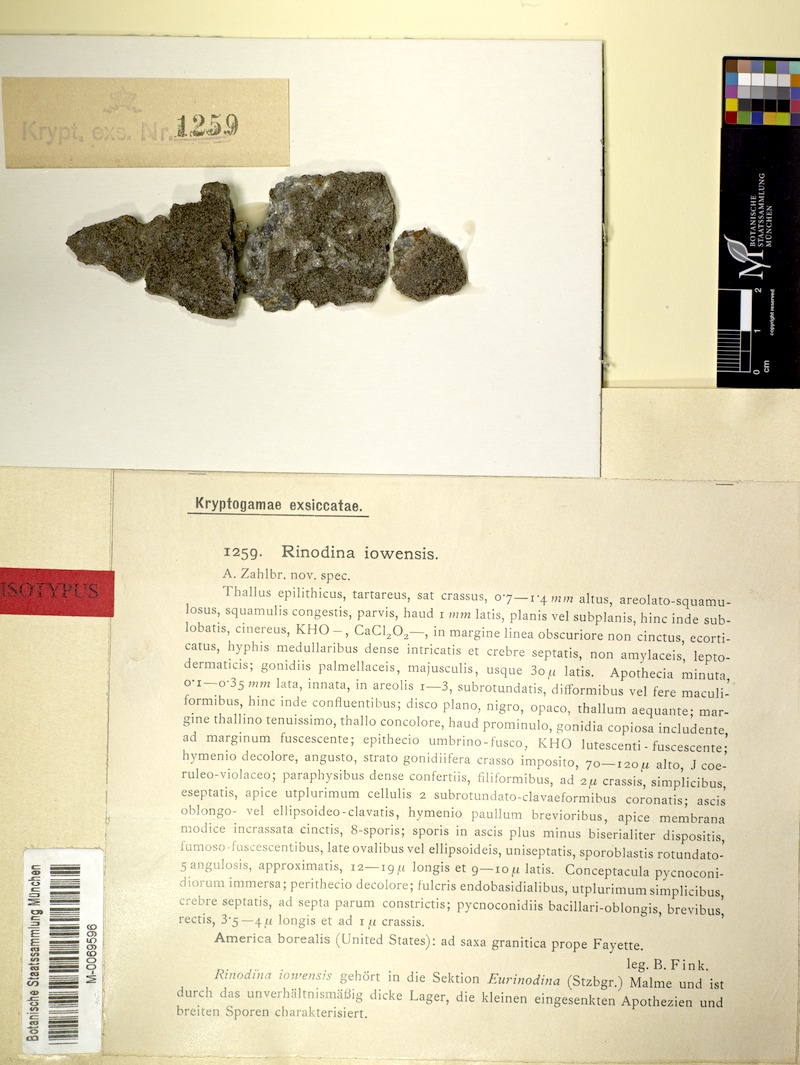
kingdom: Fungi
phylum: Ascomycota
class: Lecanoromycetes
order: Caliciales
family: Physciaceae
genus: Rinodina
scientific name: Rinodina iowensis
